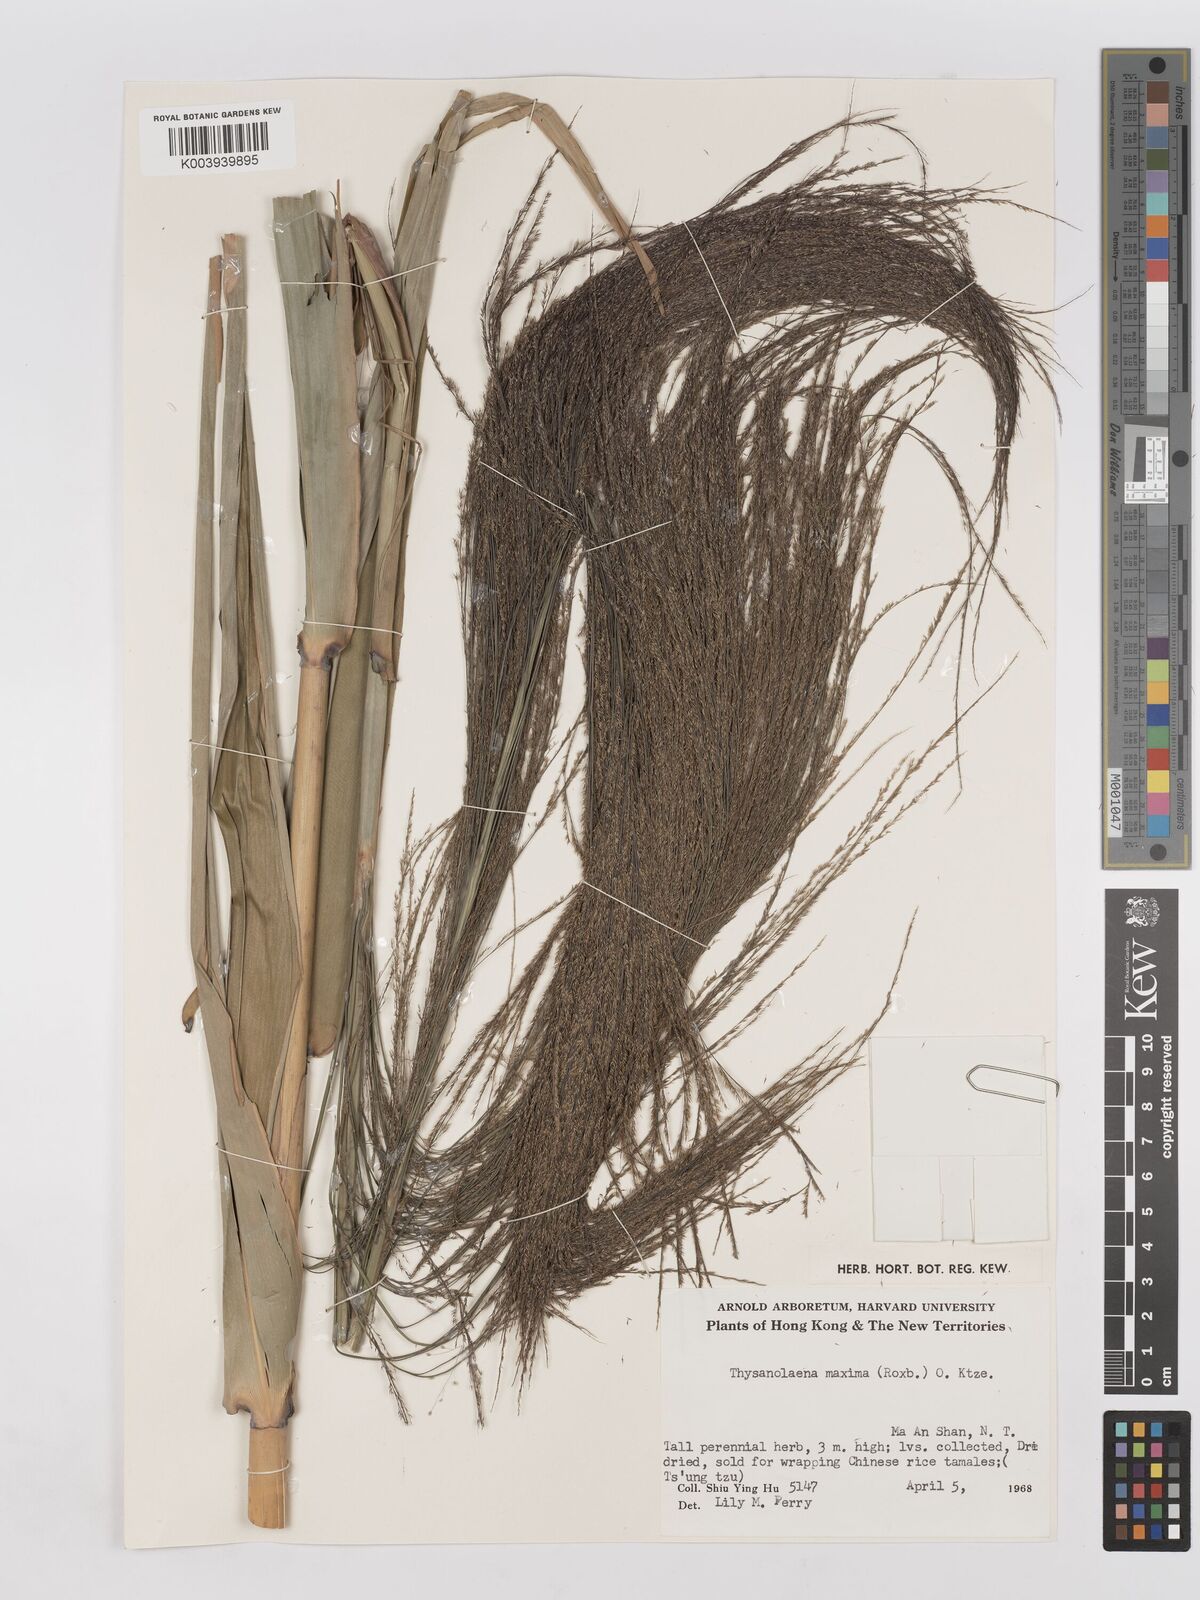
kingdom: Plantae
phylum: Tracheophyta
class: Liliopsida
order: Poales
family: Poaceae
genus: Thysanolaena
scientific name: Thysanolaena latifolia
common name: Tiger grass
